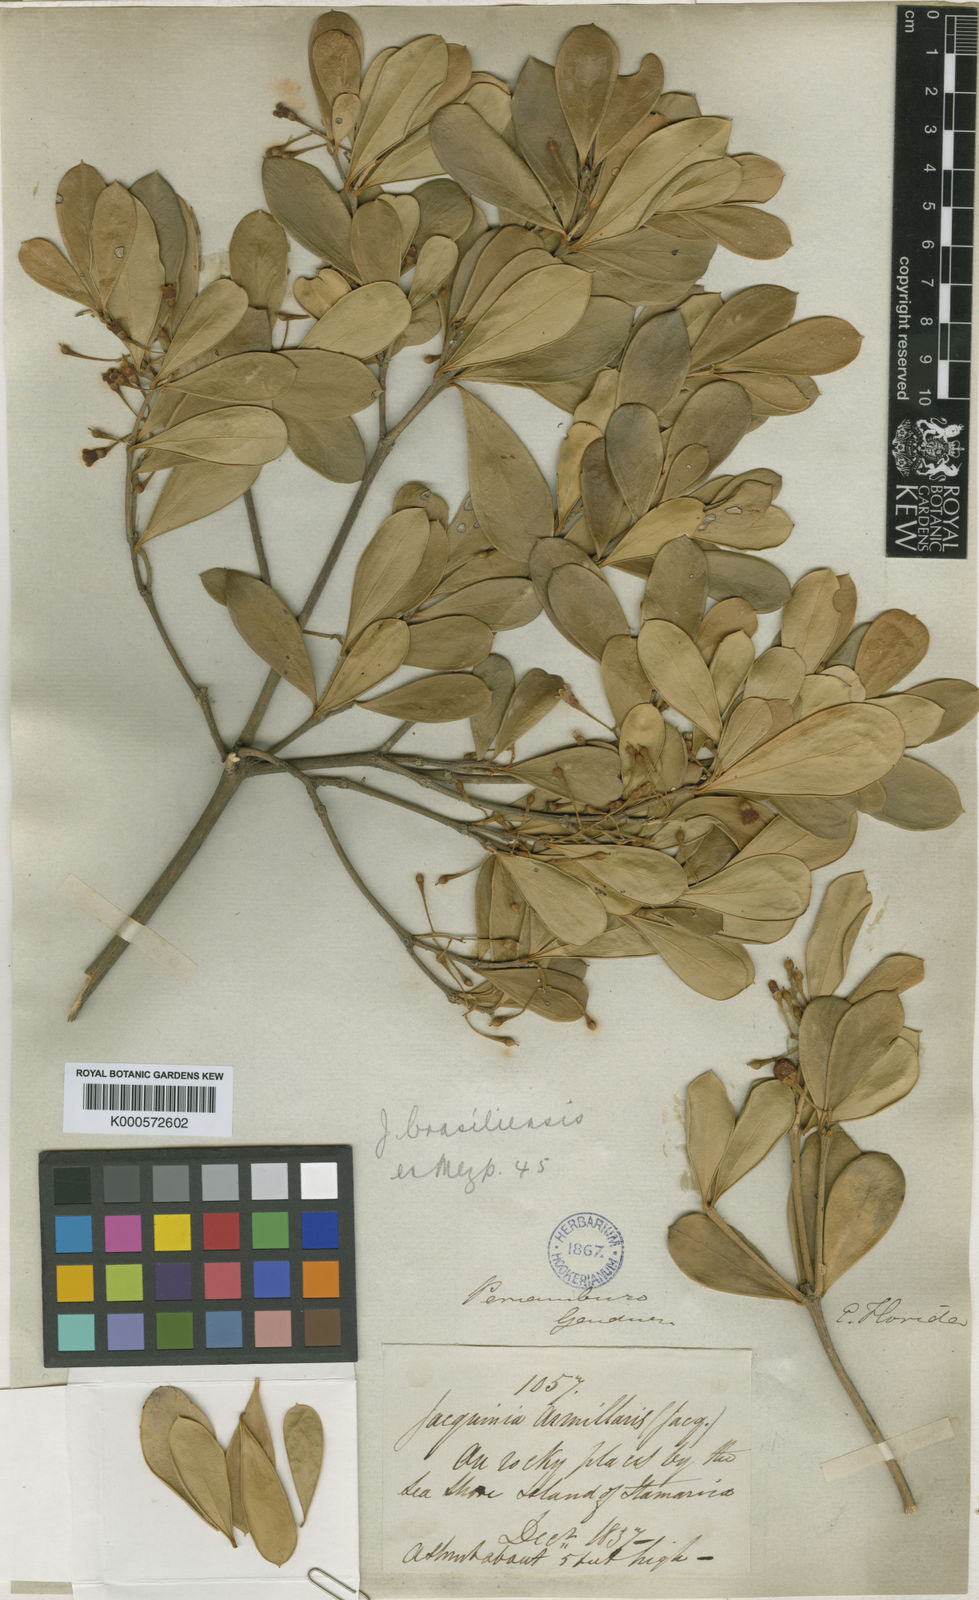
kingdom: Plantae
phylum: Tracheophyta
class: Magnoliopsida
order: Ericales
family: Primulaceae
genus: Jacquinia
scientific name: Jacquinia armillaris
